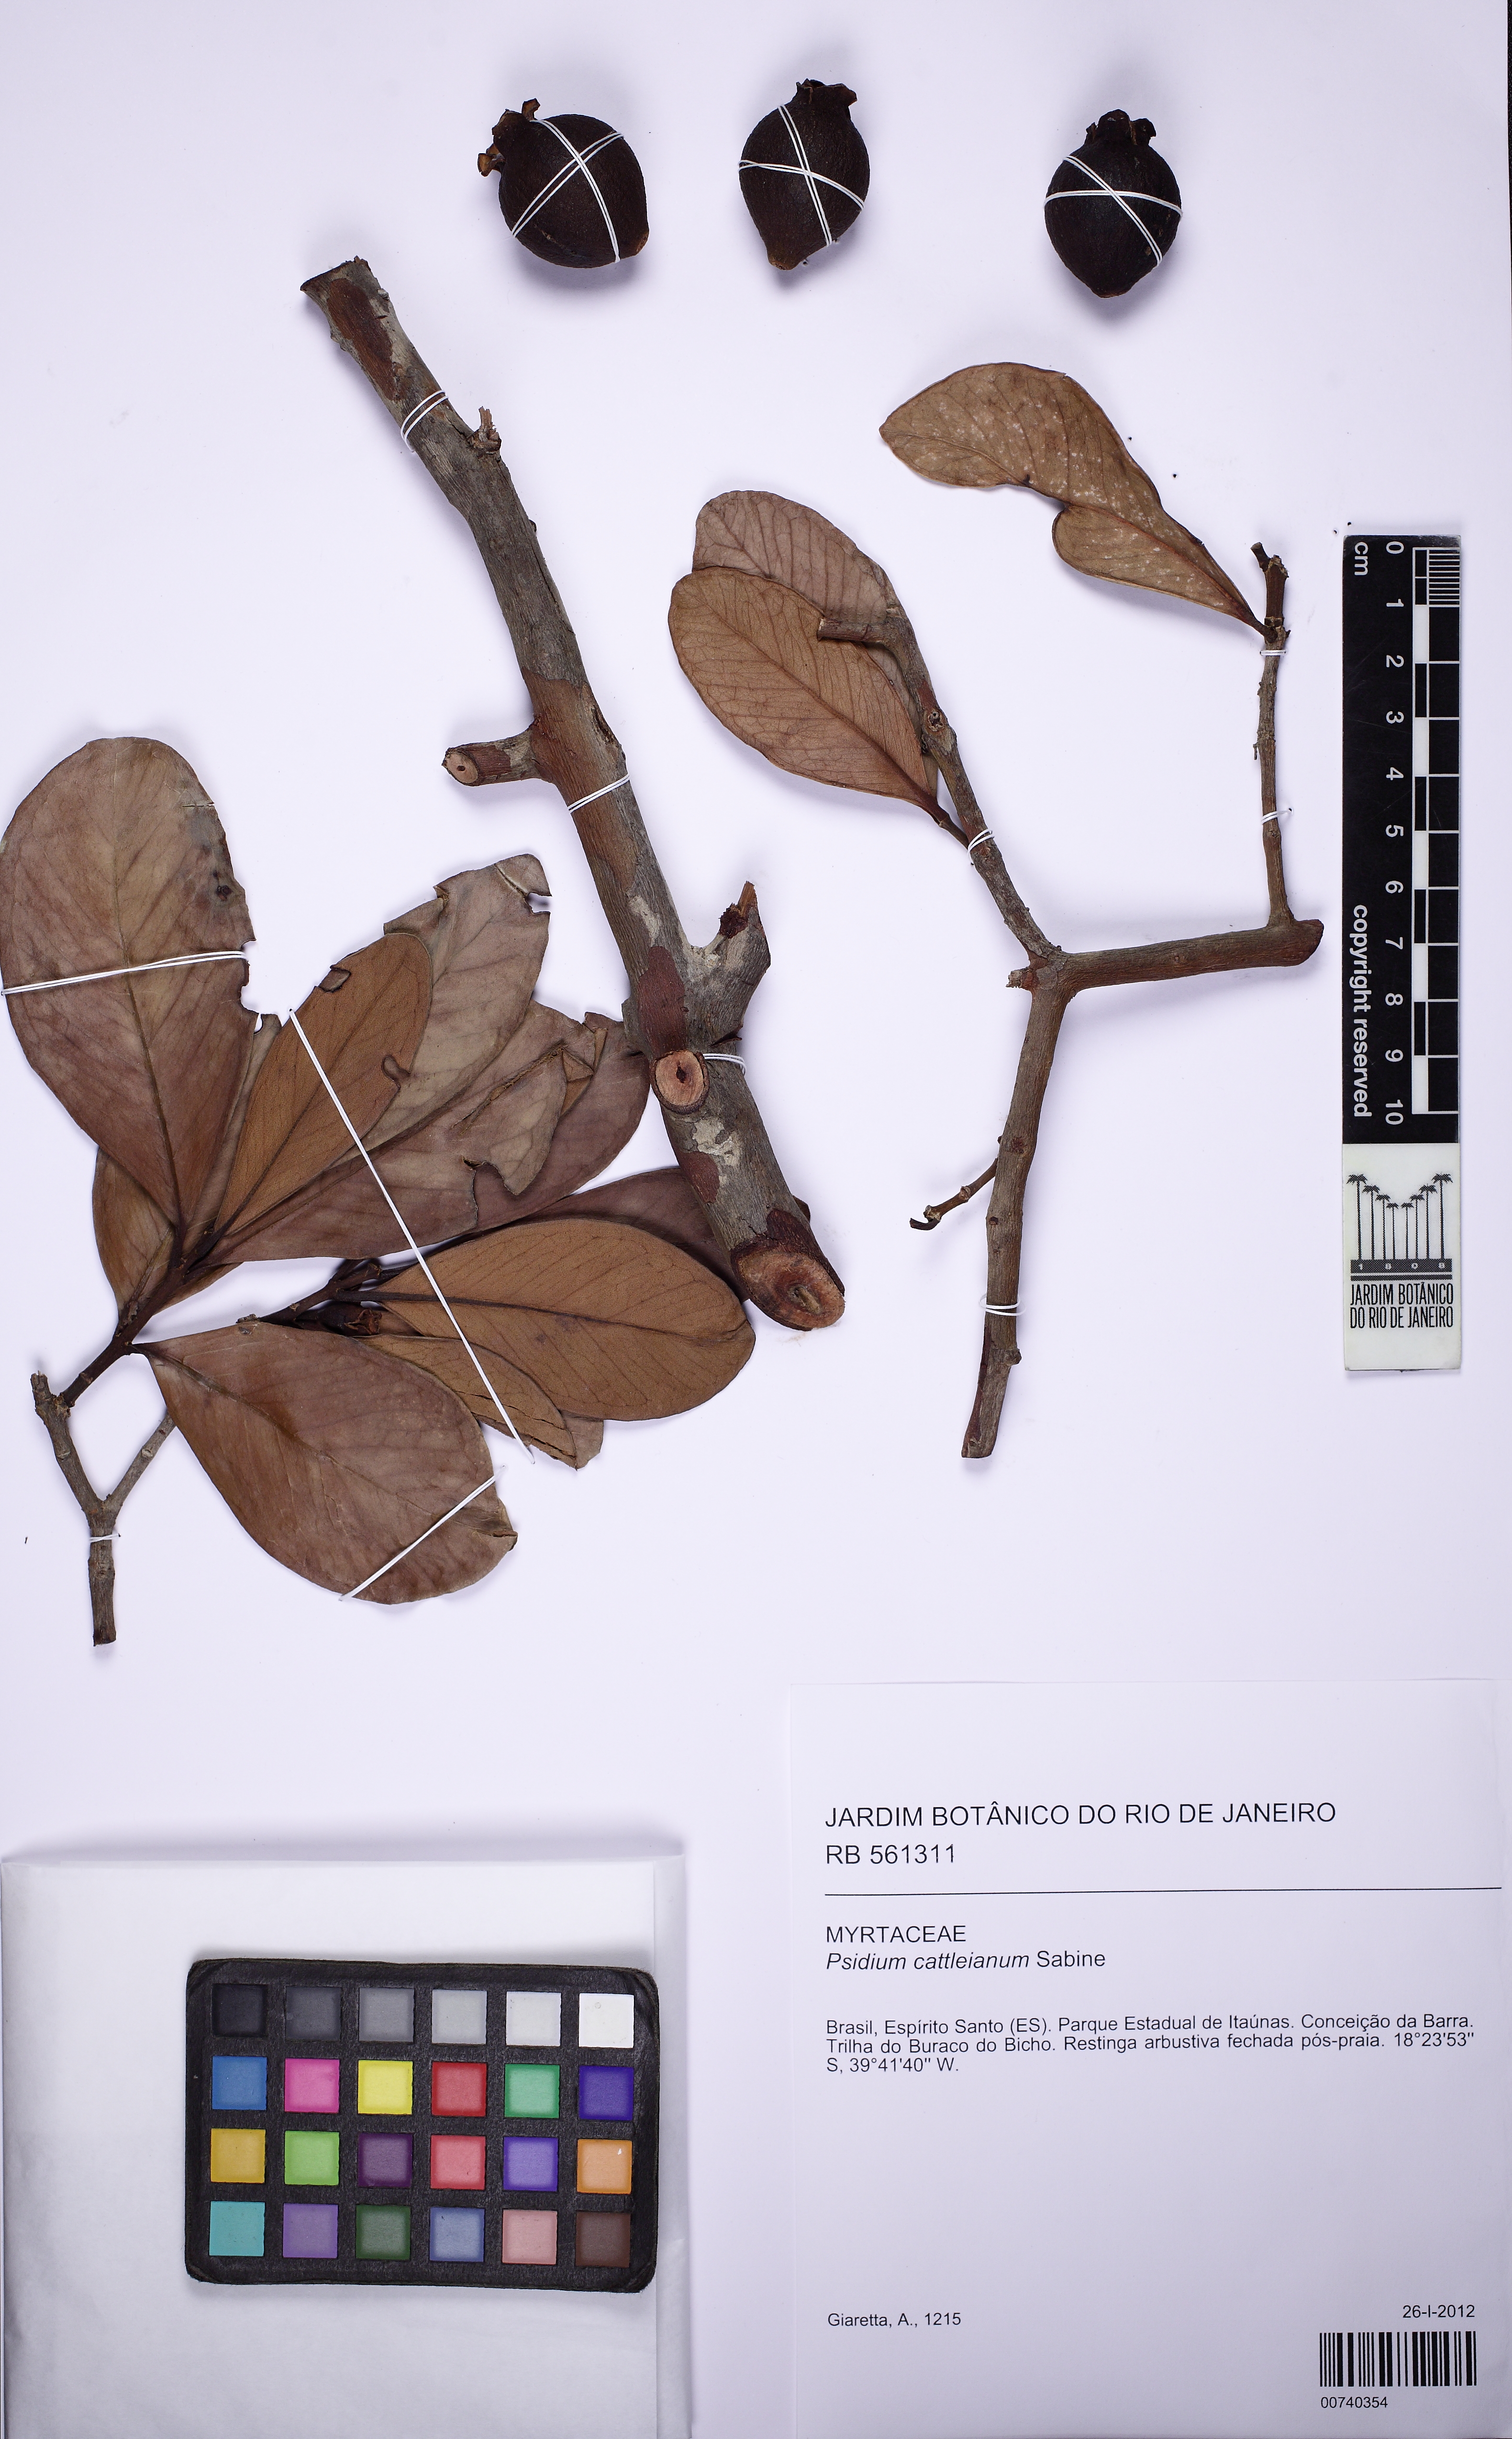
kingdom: Plantae
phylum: Tracheophyta
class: Magnoliopsida
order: Myrtales
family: Myrtaceae
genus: Psidium
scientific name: Psidium cattleianum
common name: Strawberry guava
